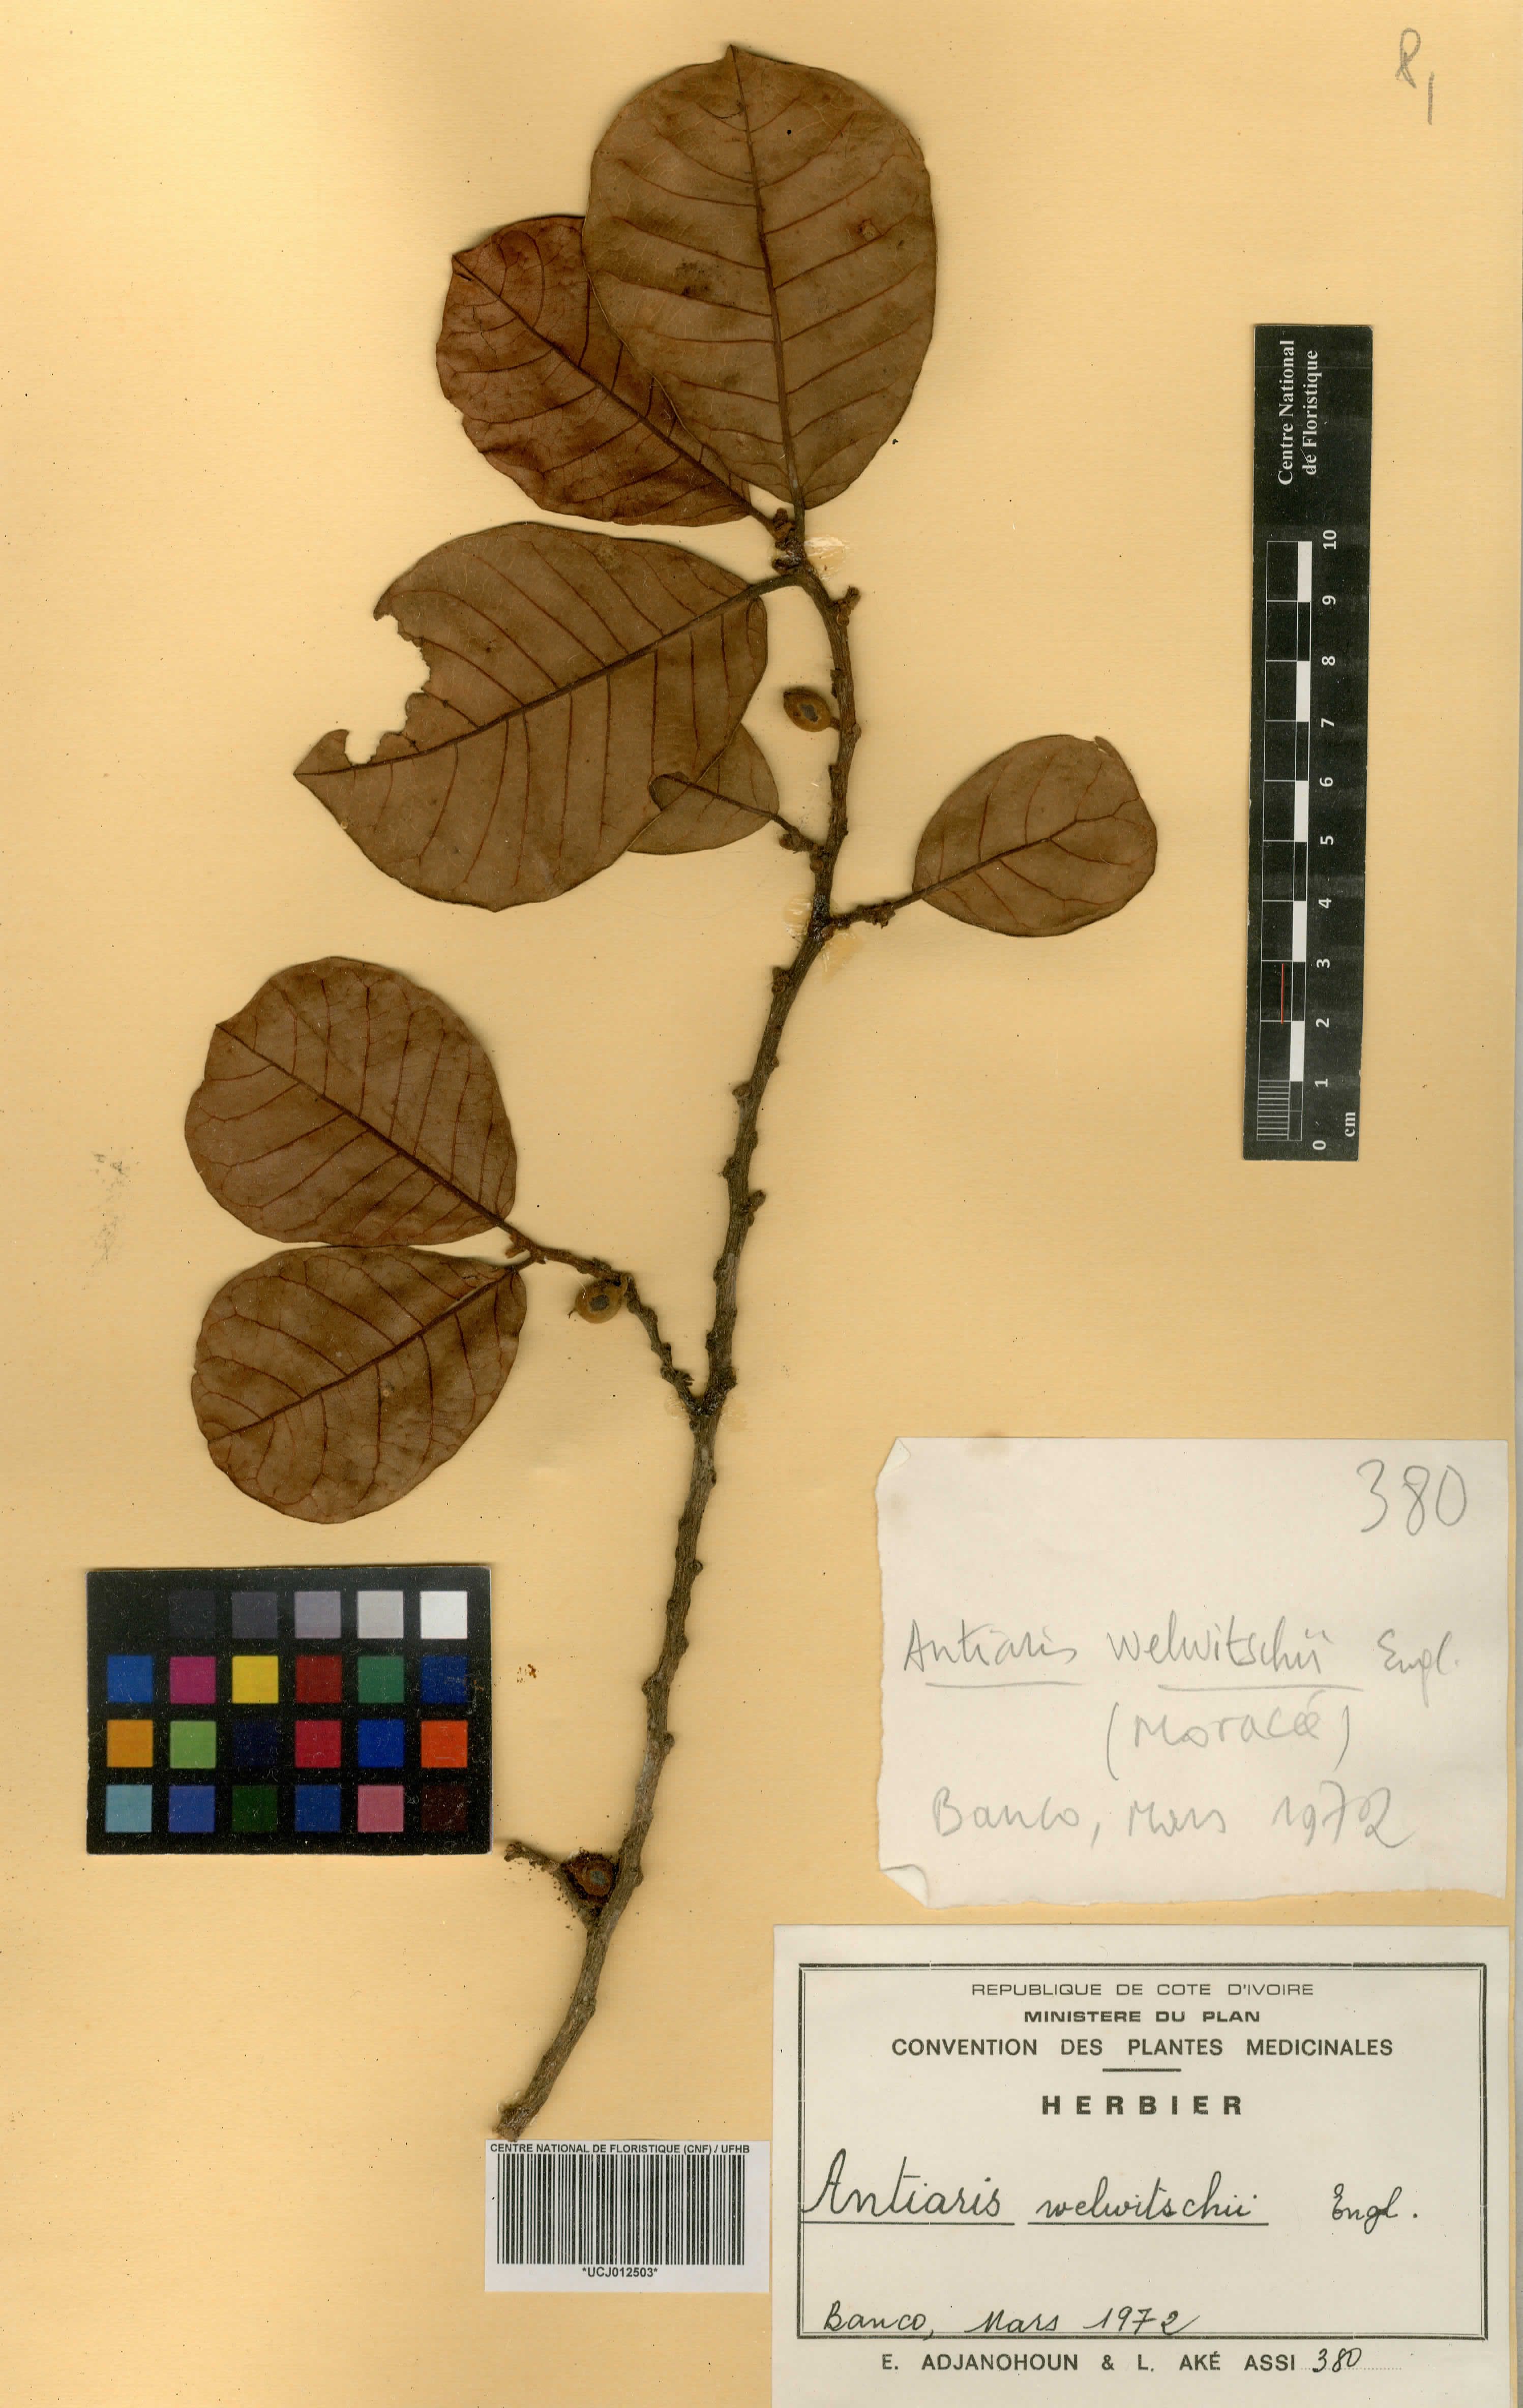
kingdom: Plantae
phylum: Tracheophyta
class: Magnoliopsida
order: Rosales
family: Moraceae
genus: Antiaris
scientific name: Antiaris toxicaria
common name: Sackingtree
